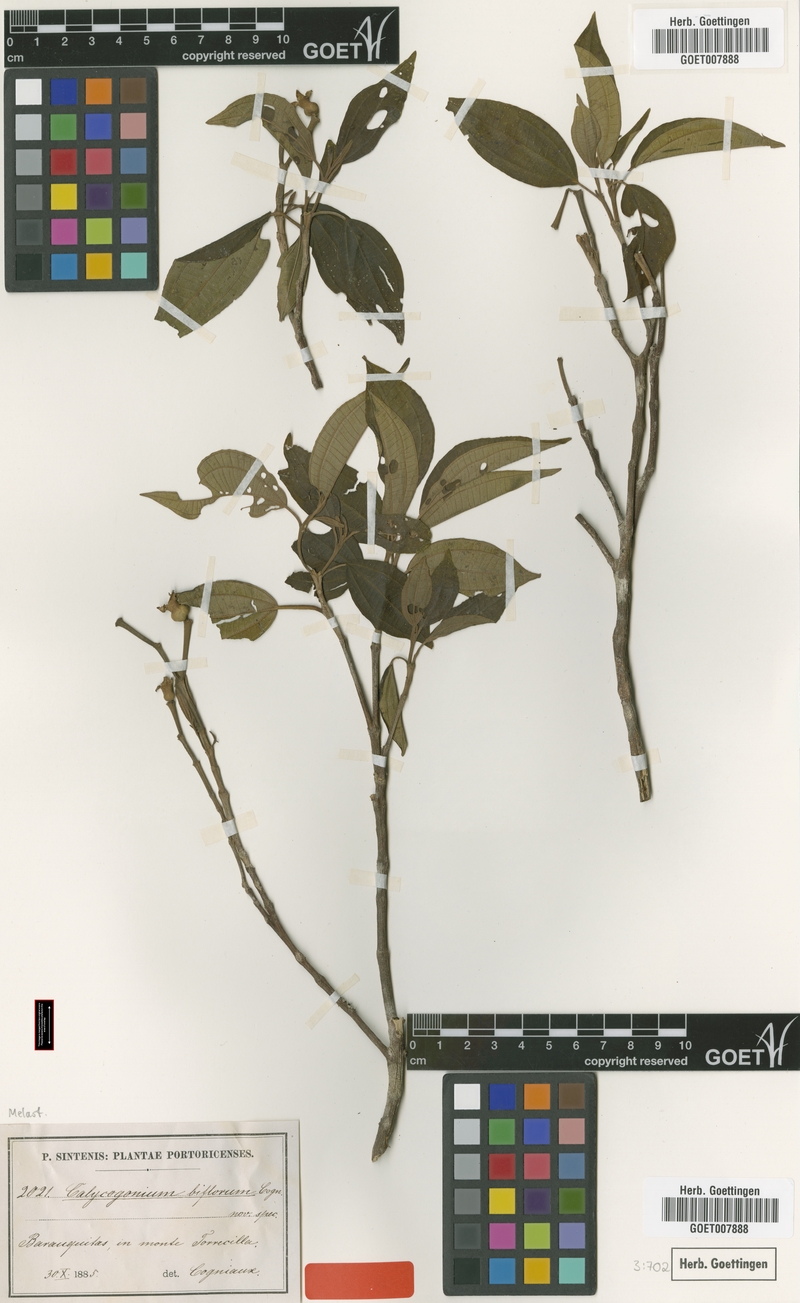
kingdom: Plantae
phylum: Tracheophyta
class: Magnoliopsida
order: Myrtales
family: Melastomataceae
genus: Miconia
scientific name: Miconia biflora
